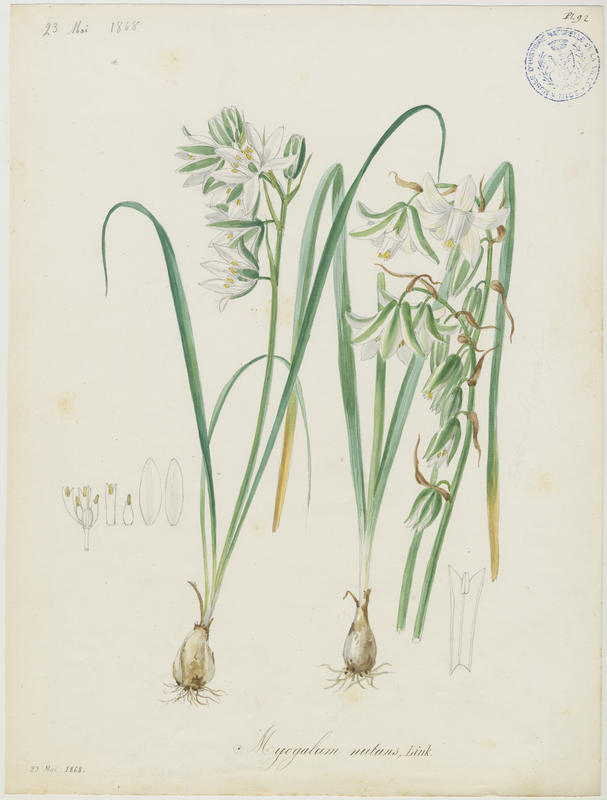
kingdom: Plantae
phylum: Tracheophyta
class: Liliopsida
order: Asparagales
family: Asparagaceae
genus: Ornithogalum
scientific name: Ornithogalum nutans
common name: Drooping star-of-bethlehem
